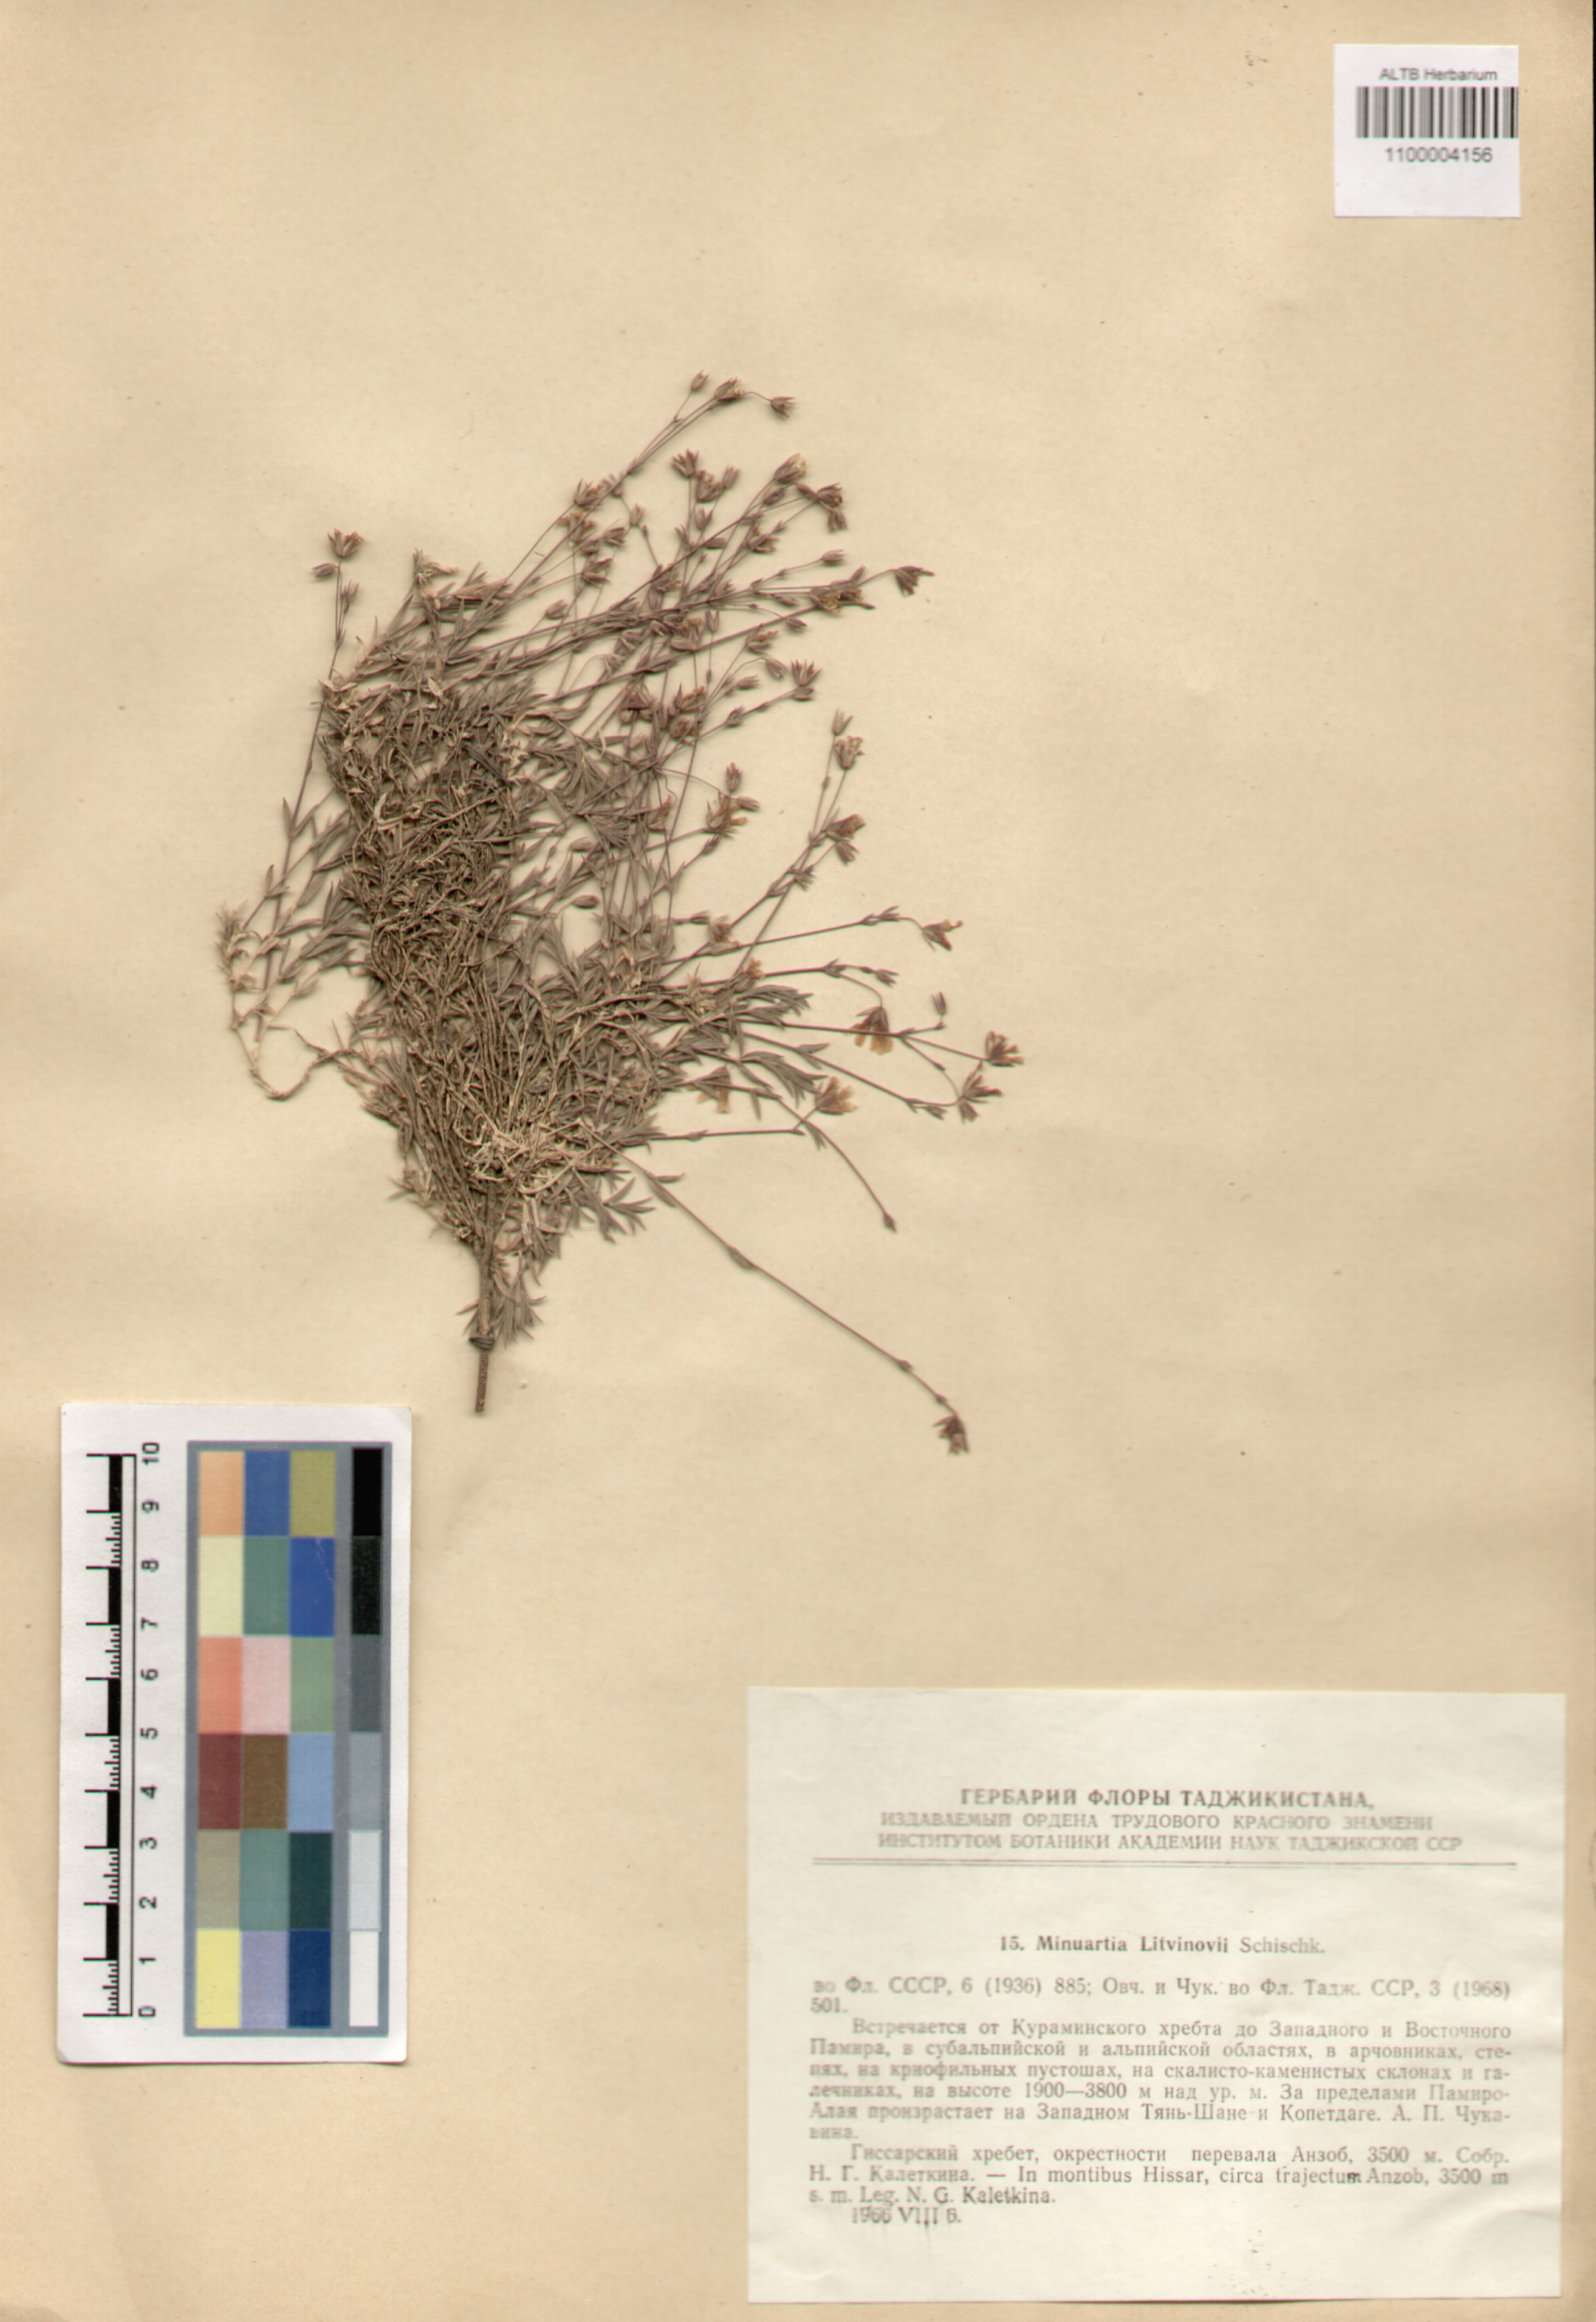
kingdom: Plantae
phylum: Tracheophyta
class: Magnoliopsida
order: Caryophyllales
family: Caryophyllaceae
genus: Sabulina
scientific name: Sabulina litvinovii
